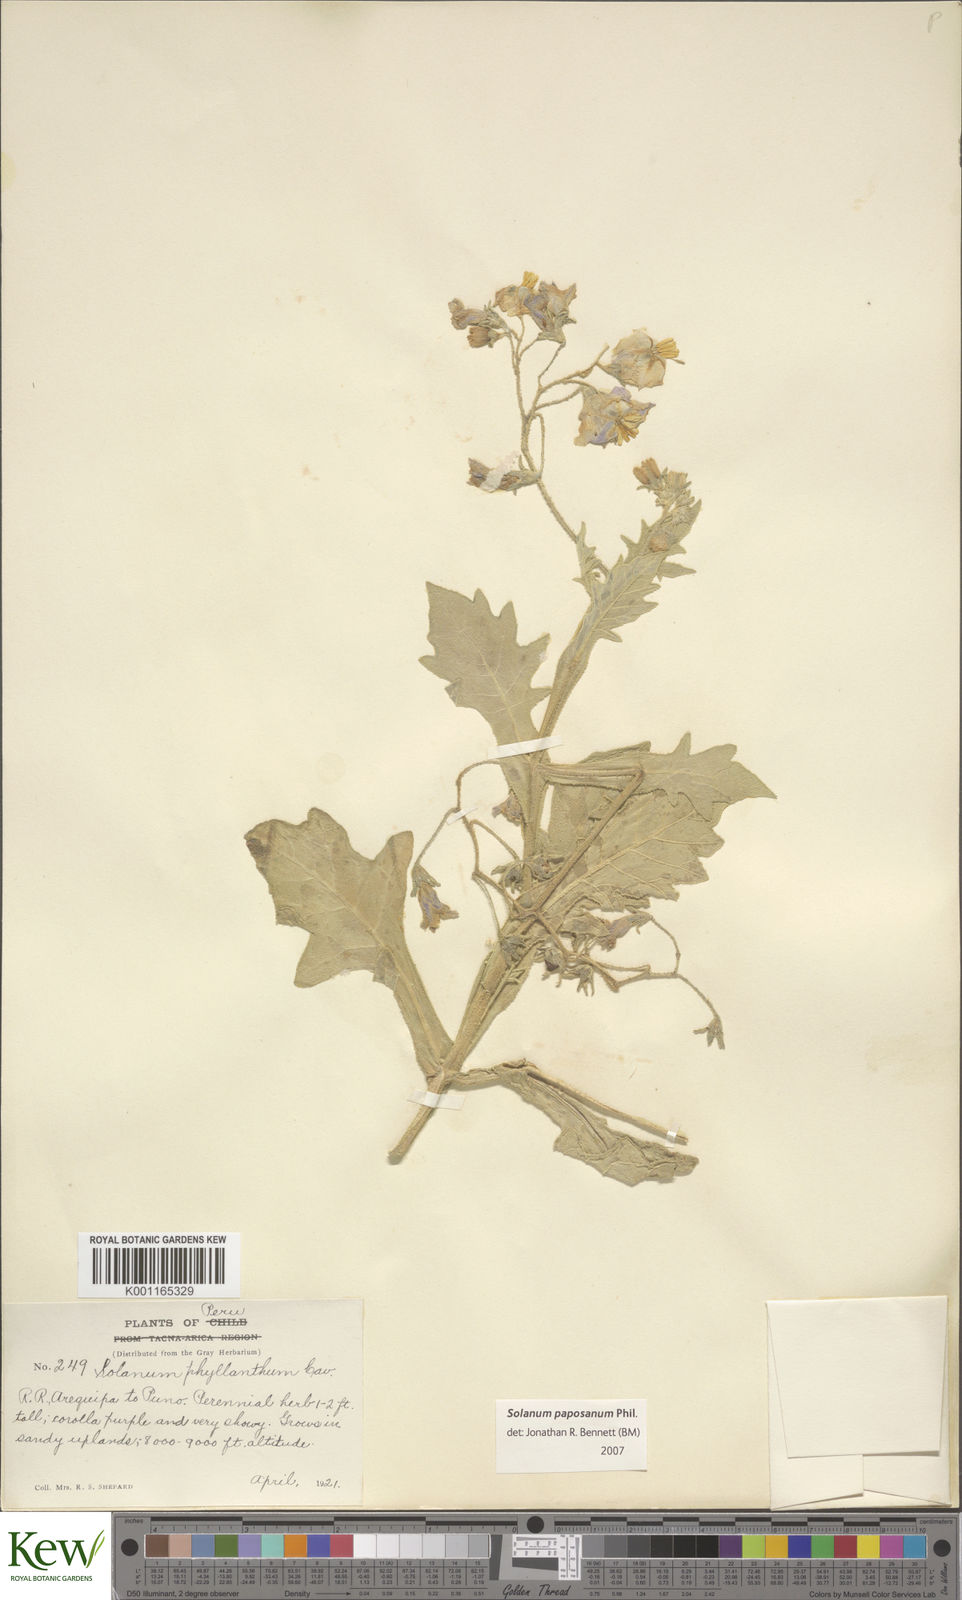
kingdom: Plantae
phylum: Tracheophyta
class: Magnoliopsida
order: Solanales
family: Solanaceae
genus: Solanum
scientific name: Solanum paposanum
